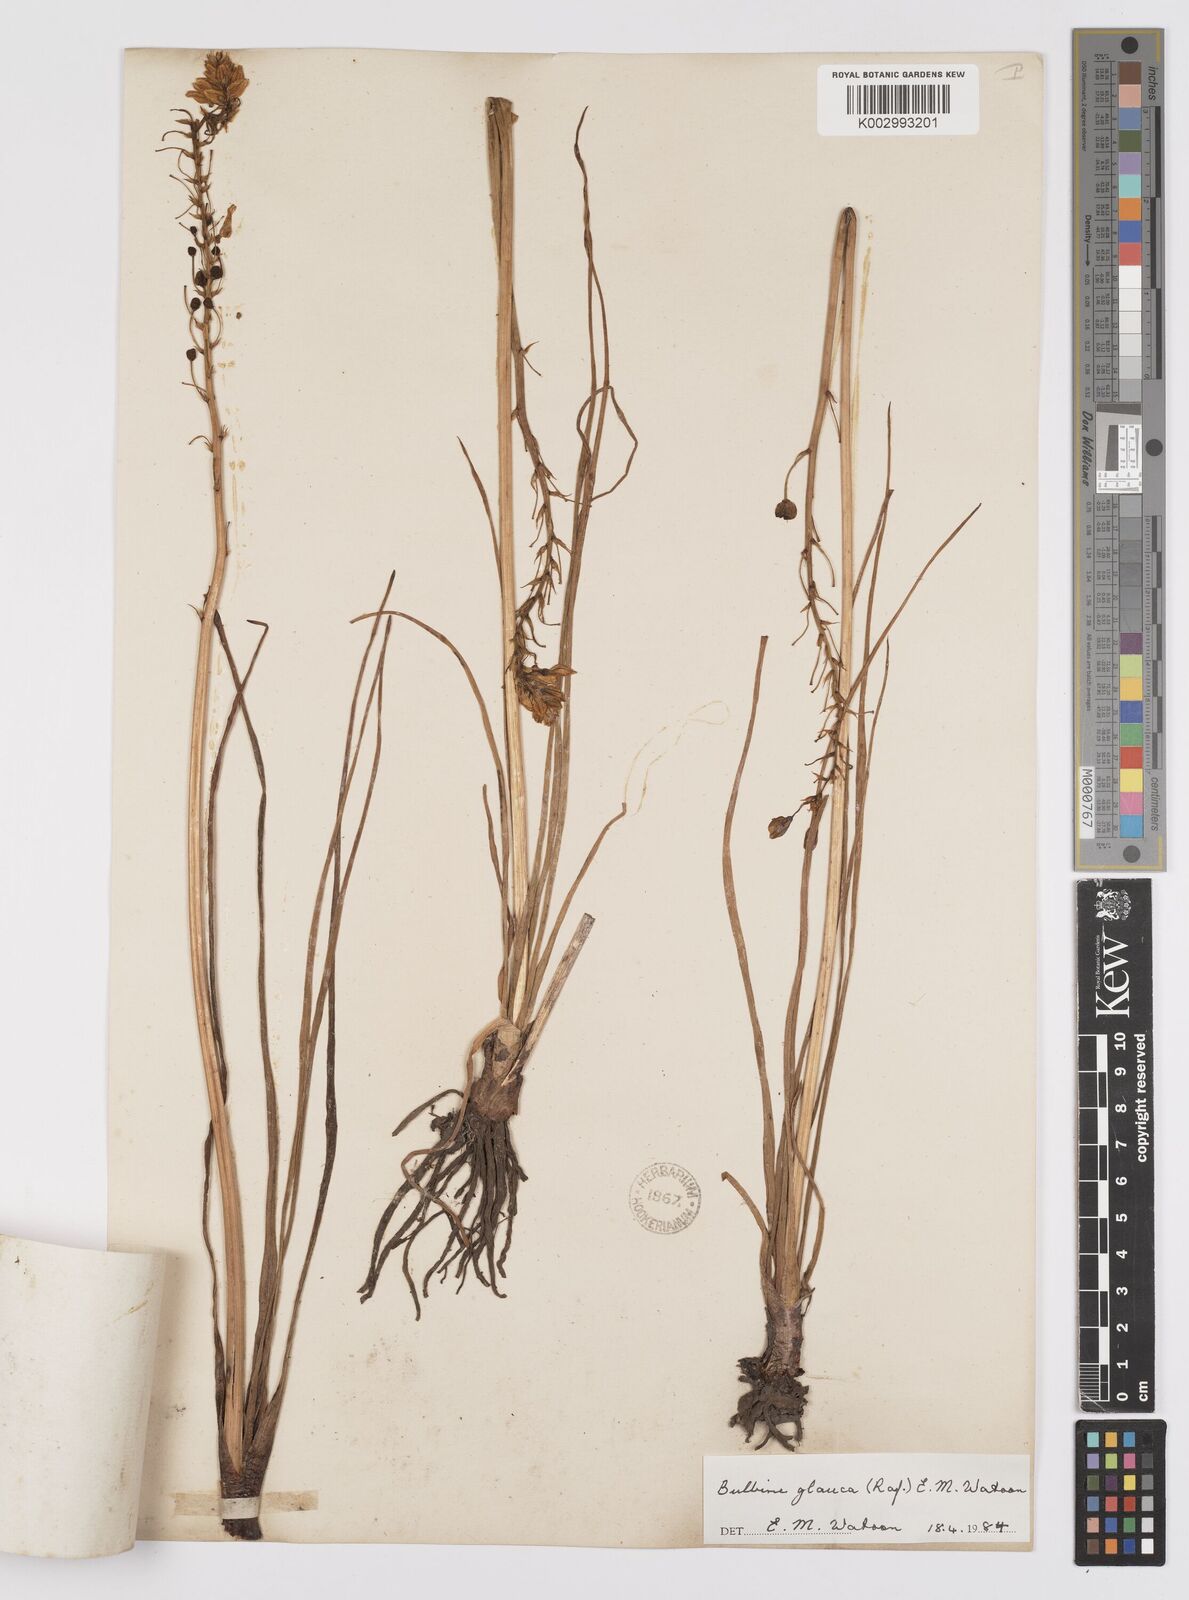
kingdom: Plantae
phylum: Tracheophyta
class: Liliopsida
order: Asparagales
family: Asphodelaceae
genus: Bulbine
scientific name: Bulbine glauca
